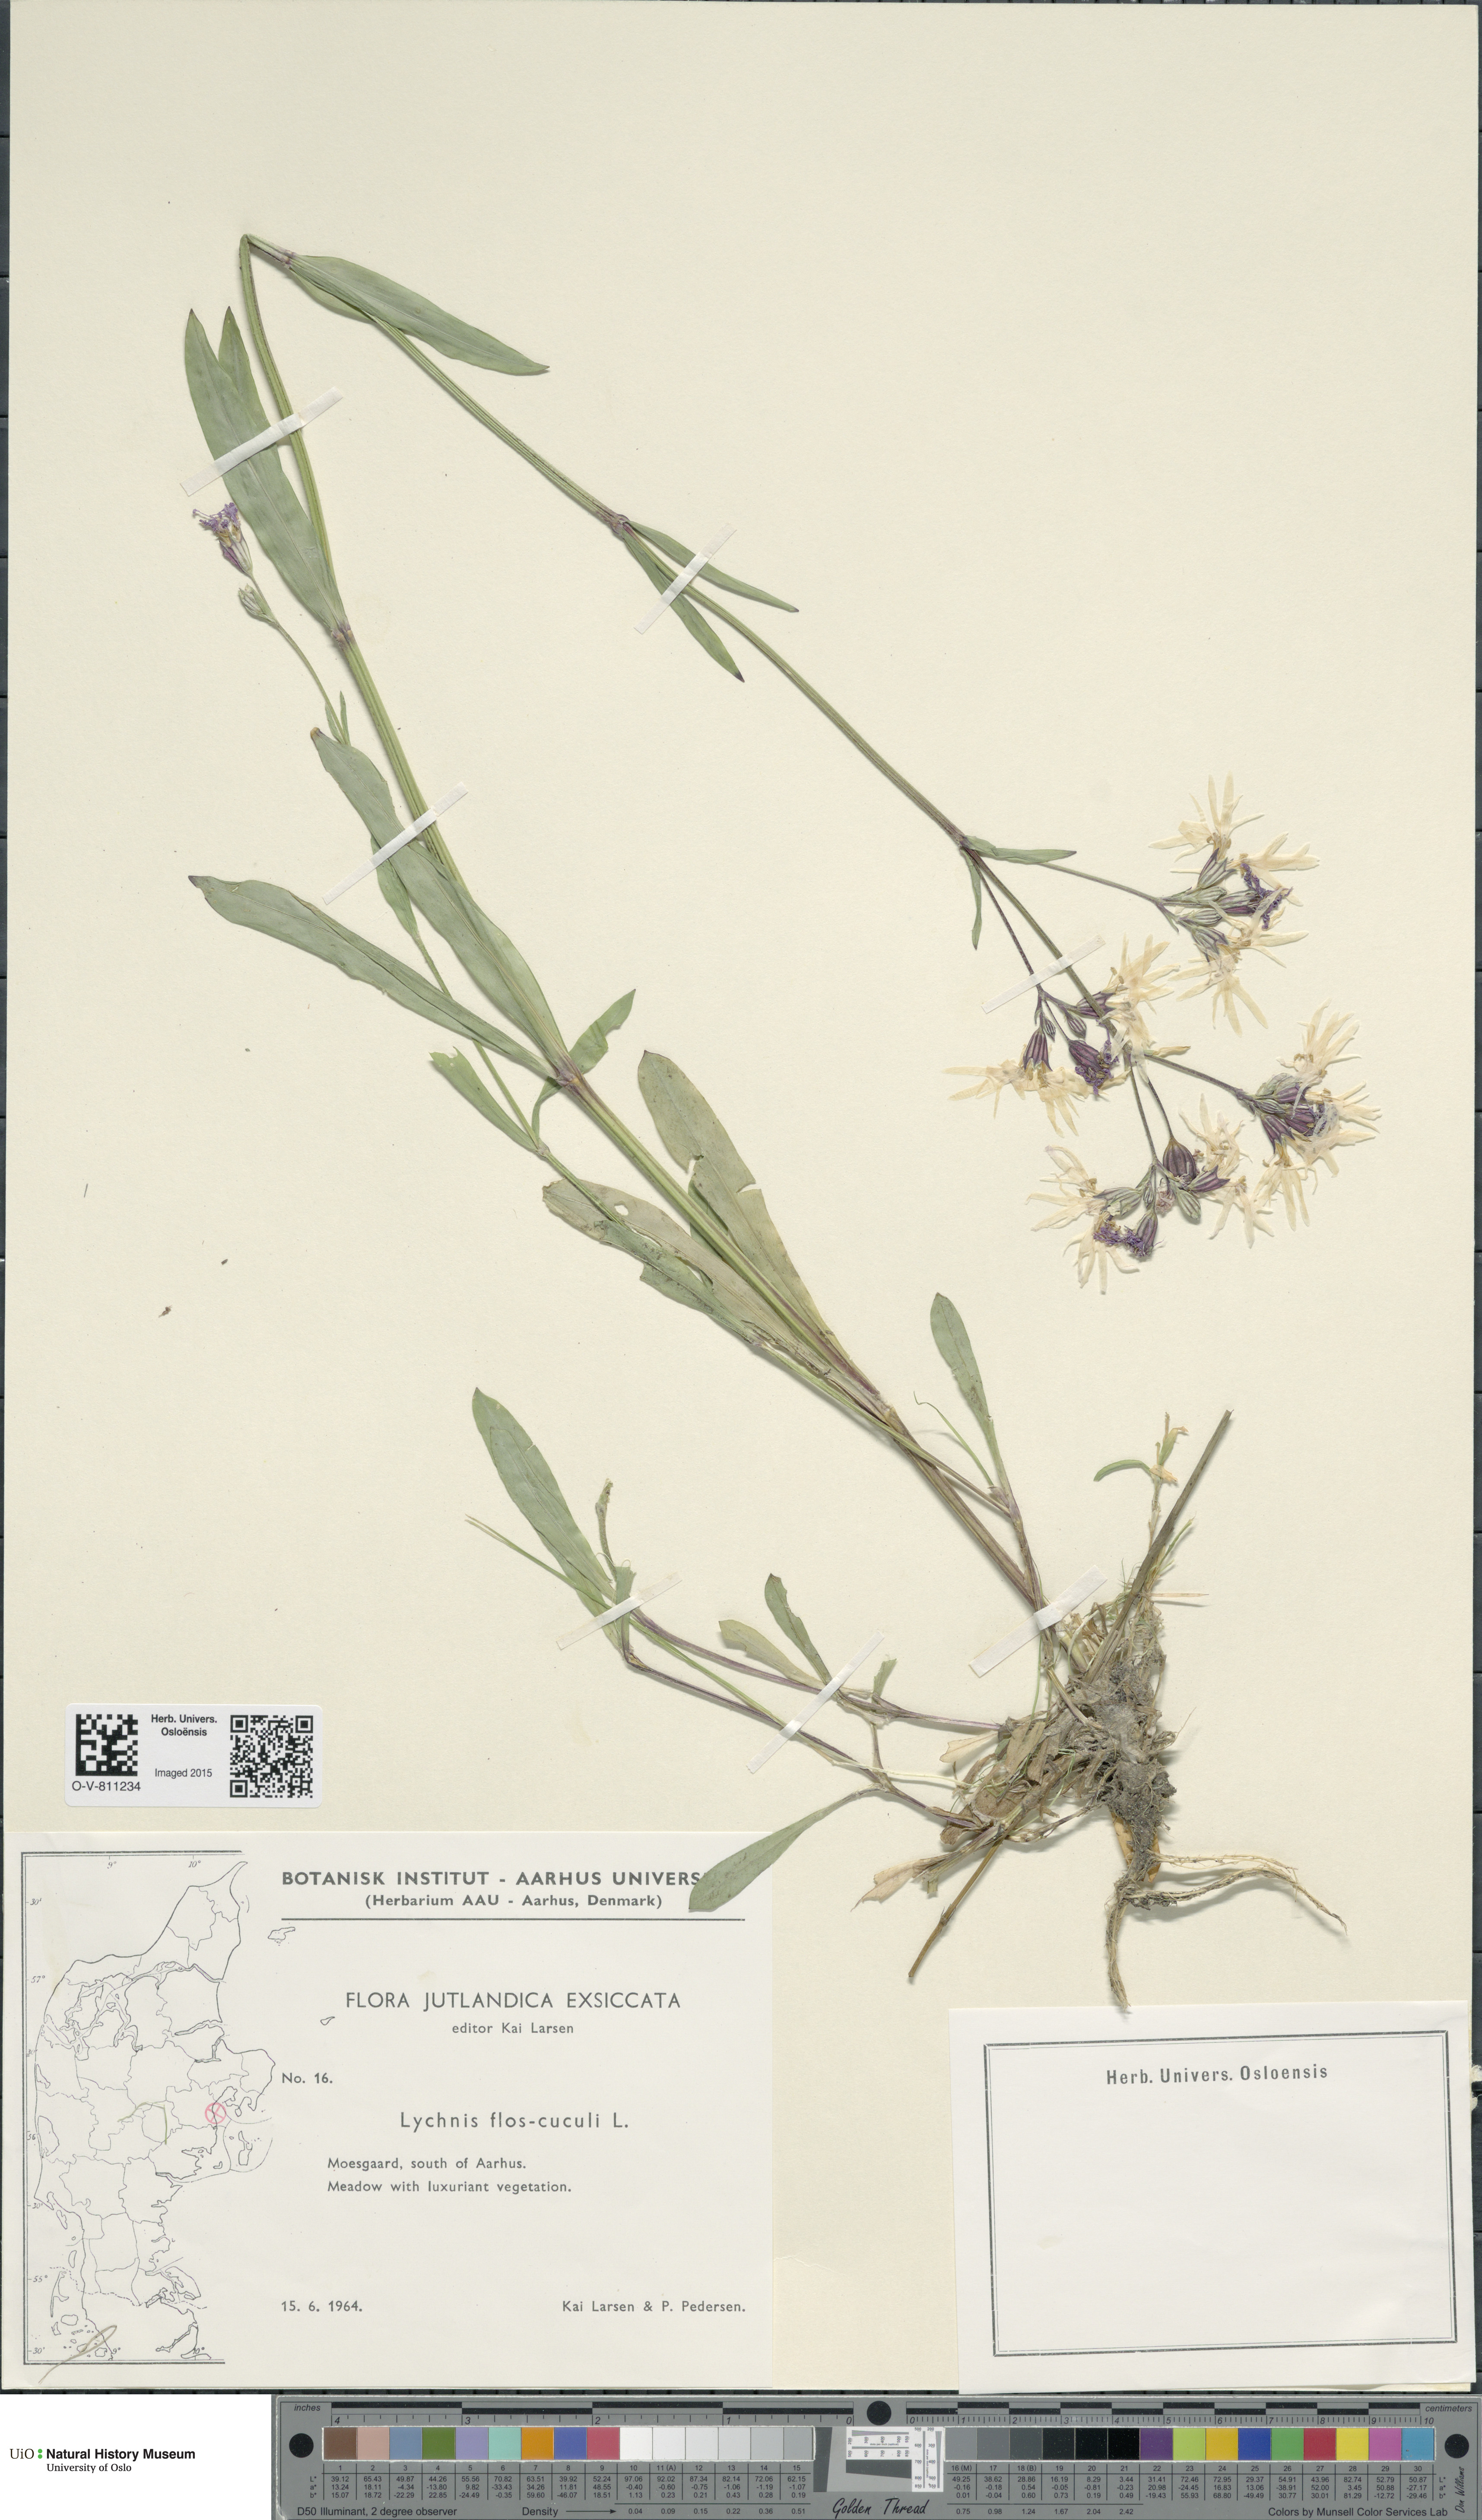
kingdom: Plantae
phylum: Tracheophyta
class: Magnoliopsida
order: Caryophyllales
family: Caryophyllaceae
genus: Silene
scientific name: Silene flos-cuculi
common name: Ragged-robin
